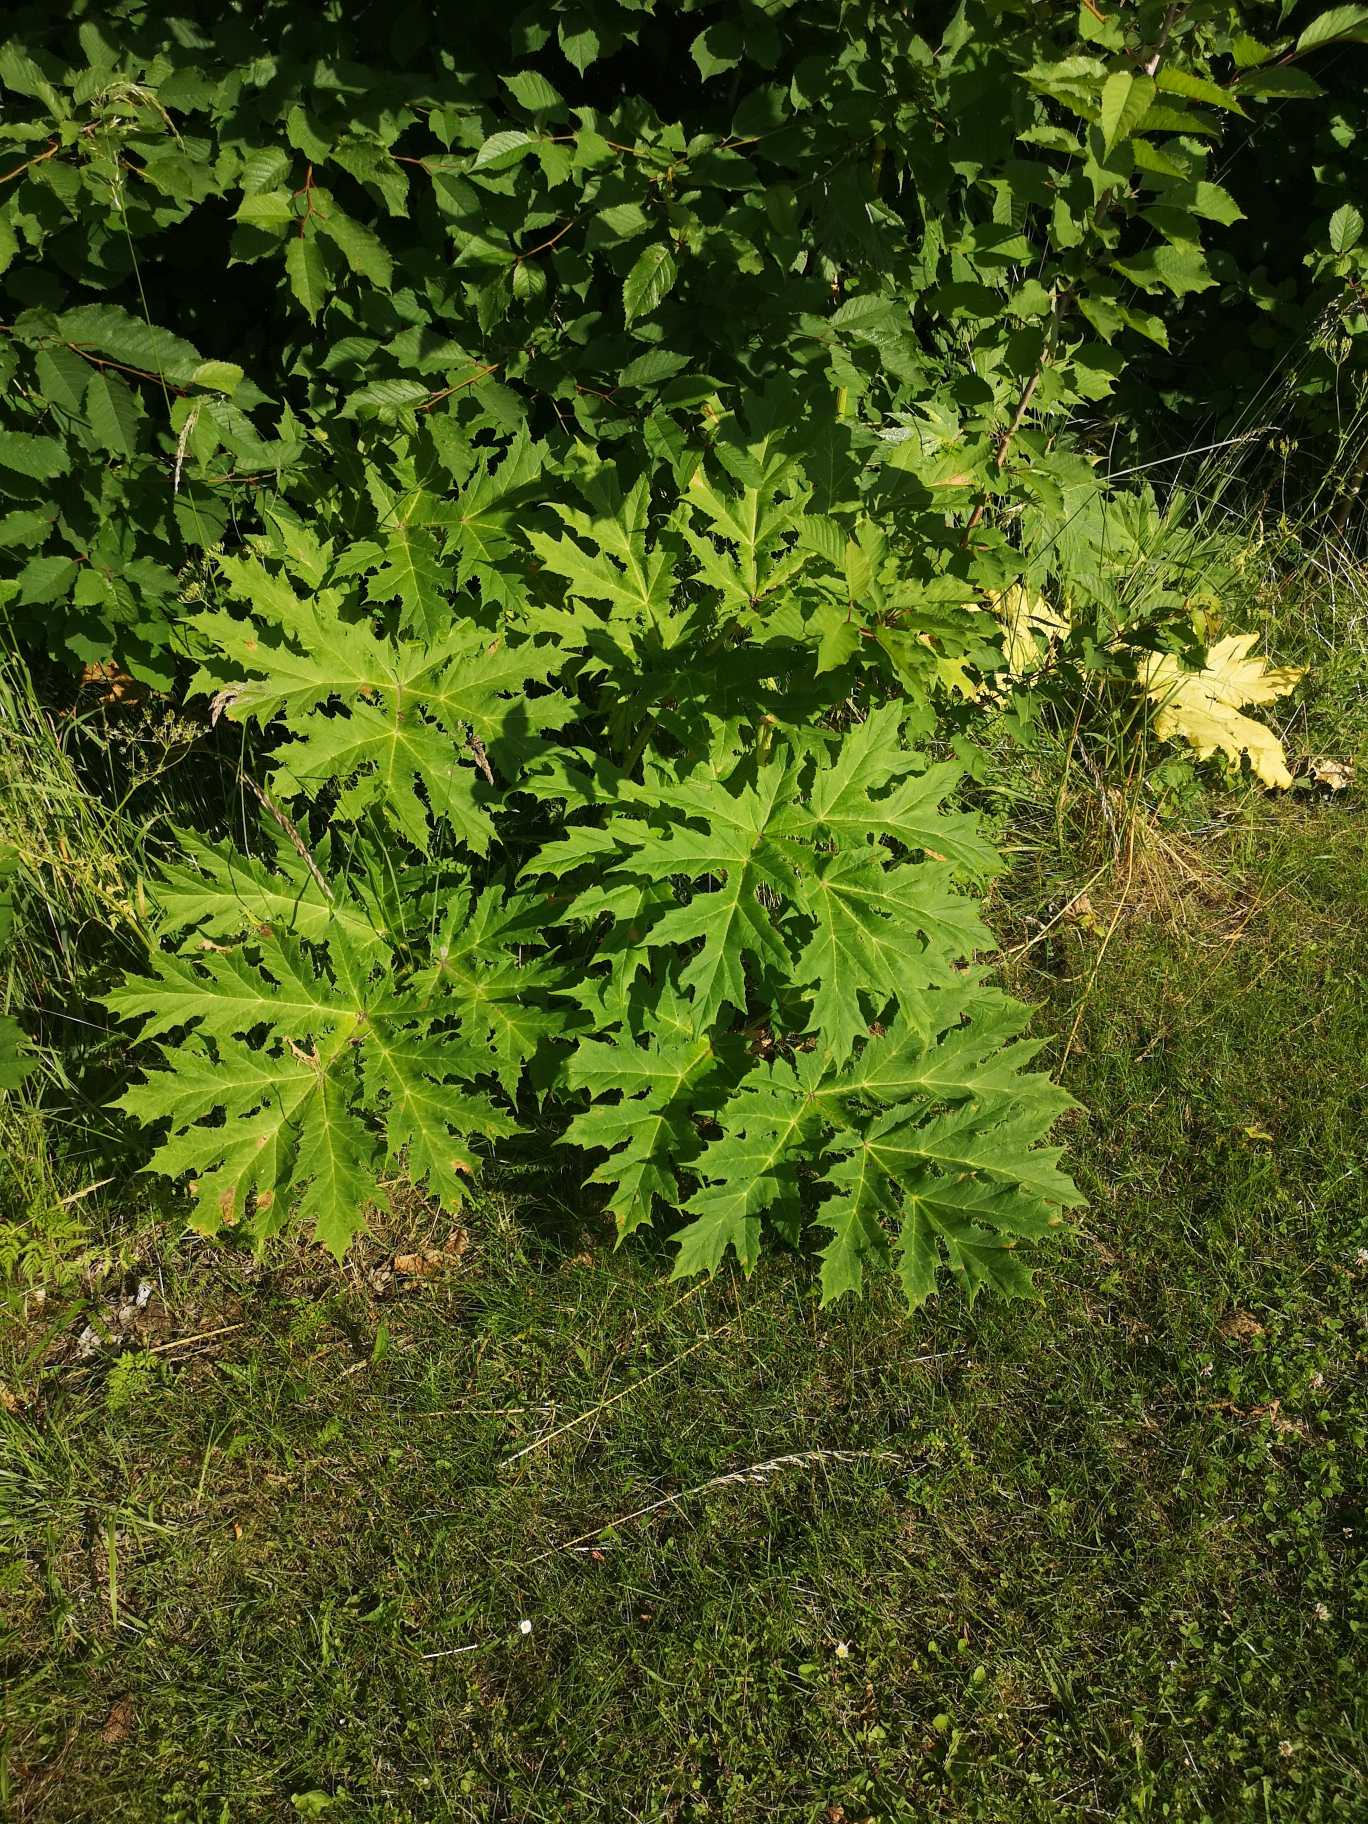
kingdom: Plantae
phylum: Tracheophyta
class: Magnoliopsida
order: Apiales
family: Apiaceae
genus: Heracleum
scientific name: Heracleum mantegazzianum
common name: Kæmpe-bjørneklo
